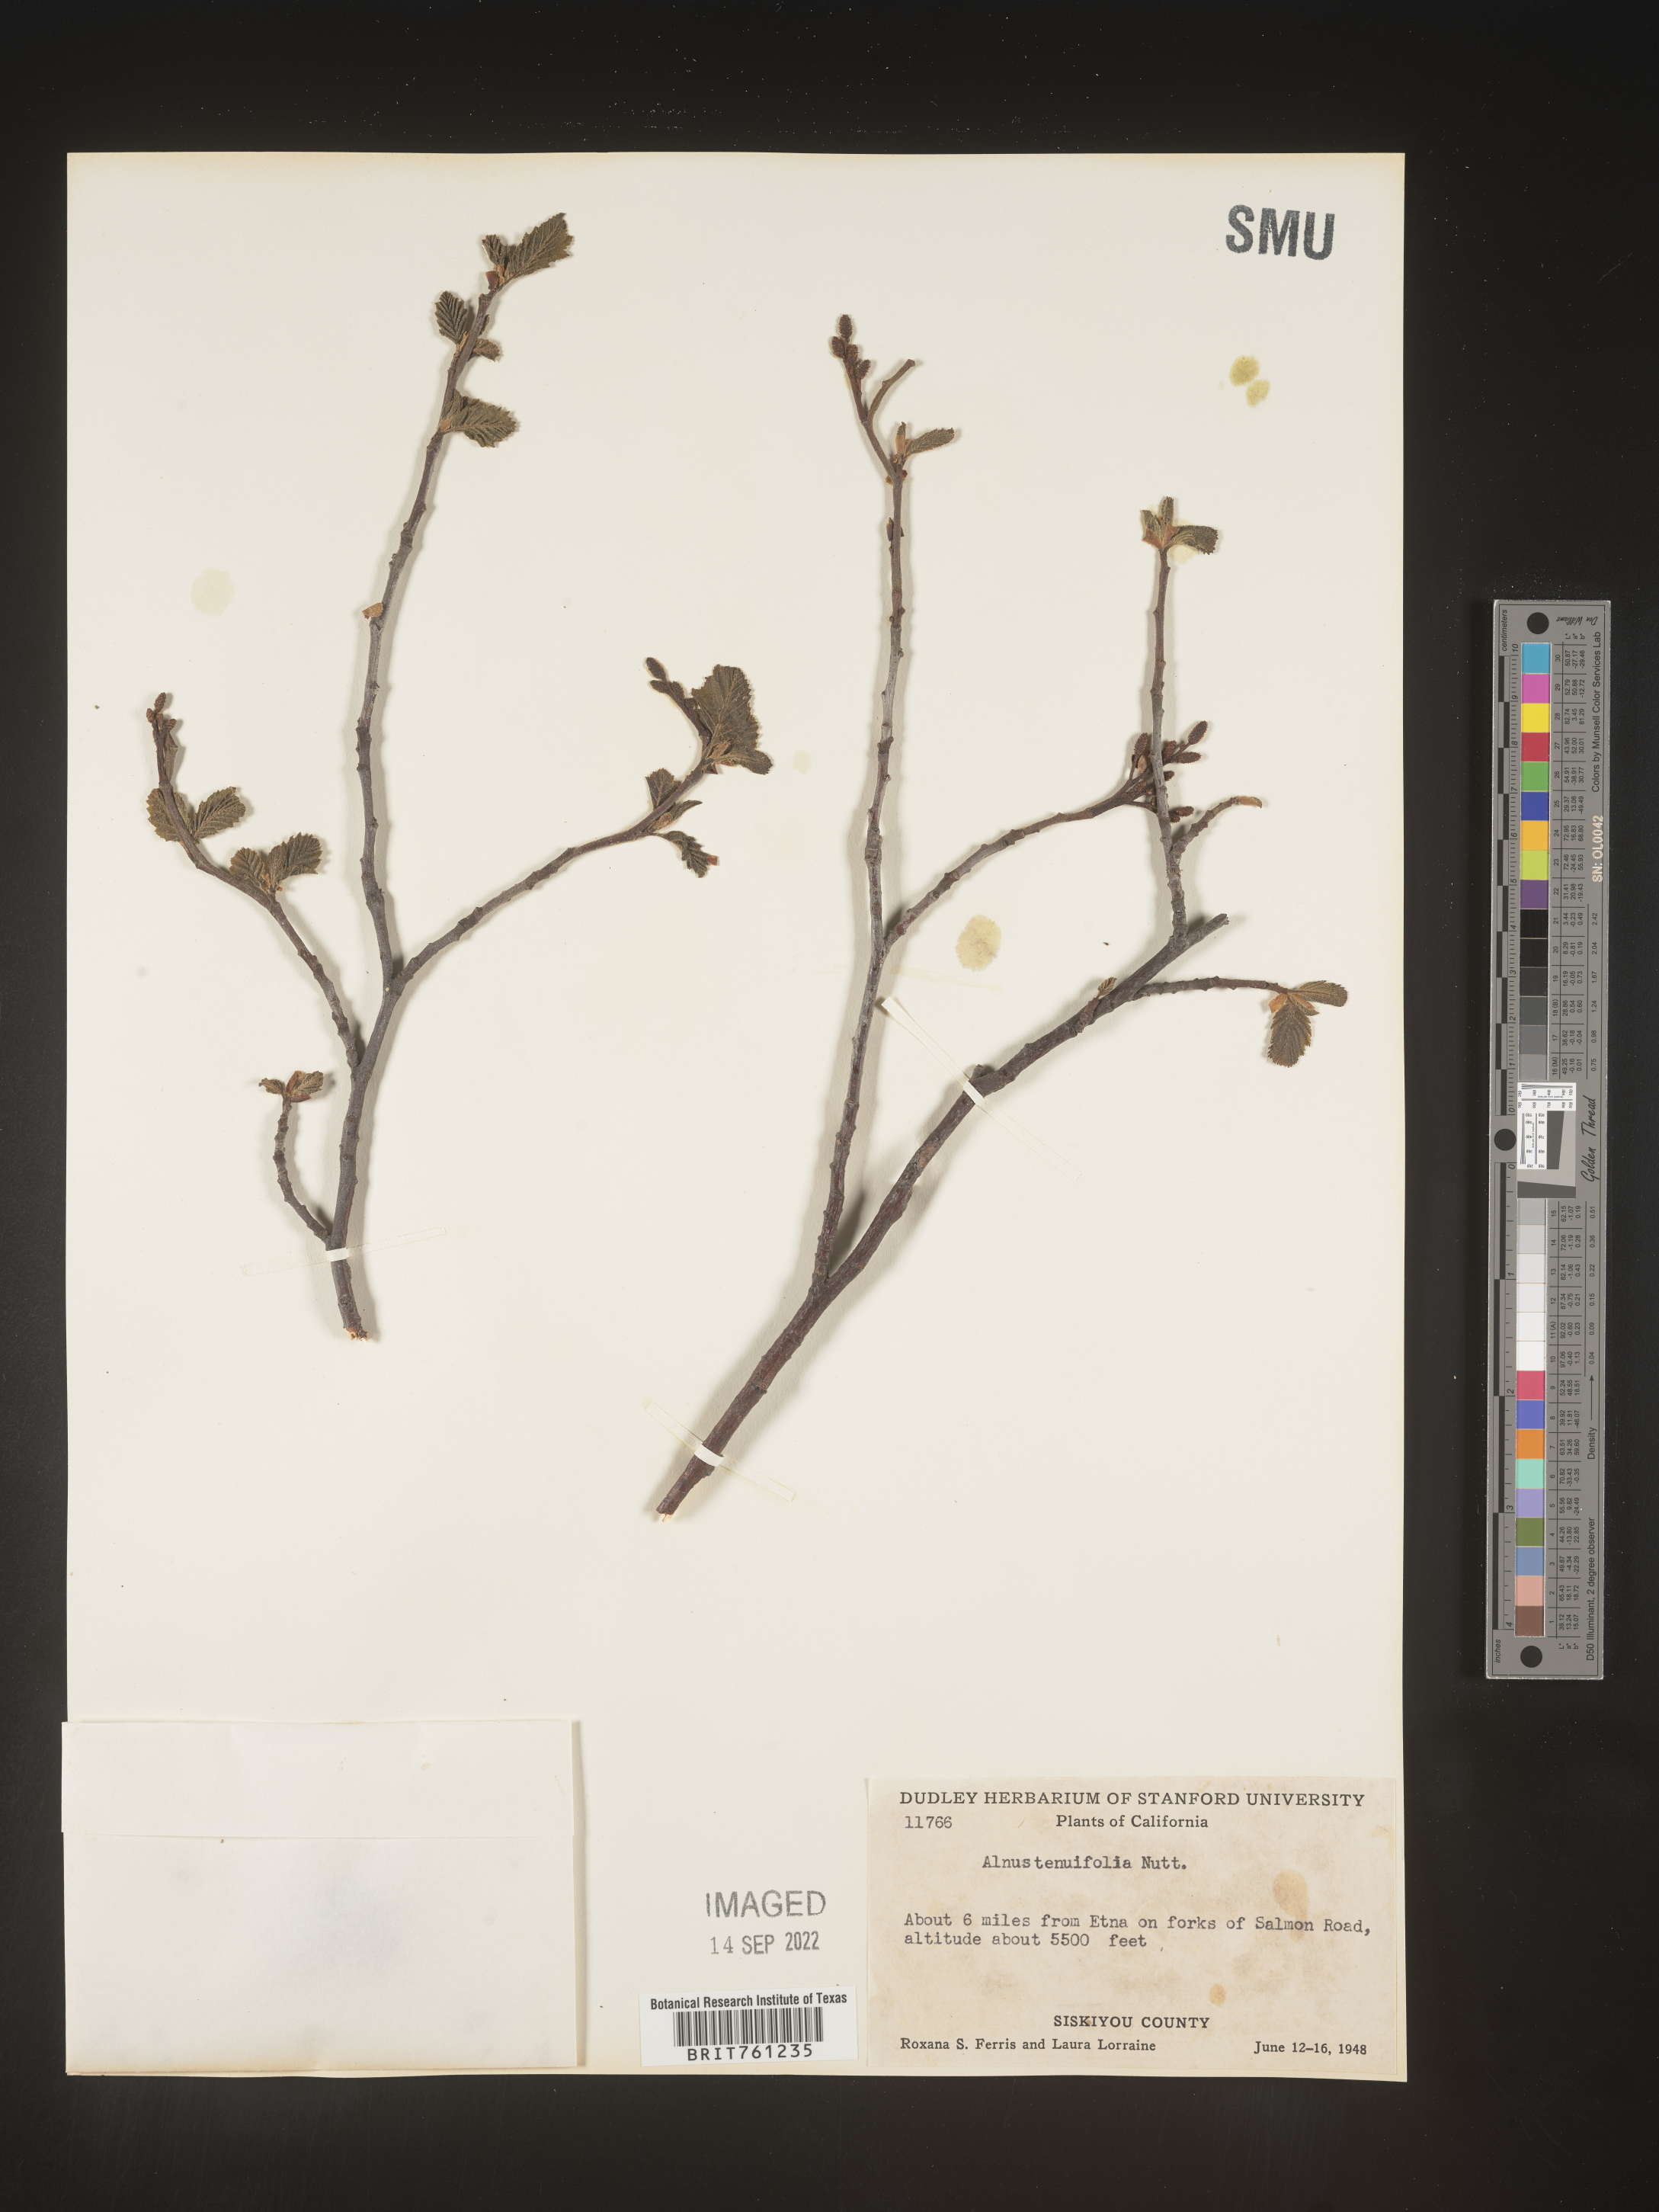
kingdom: Plantae
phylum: Tracheophyta
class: Magnoliopsida
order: Fagales
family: Betulaceae
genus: Alnus
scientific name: Alnus incana
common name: Grey alder
